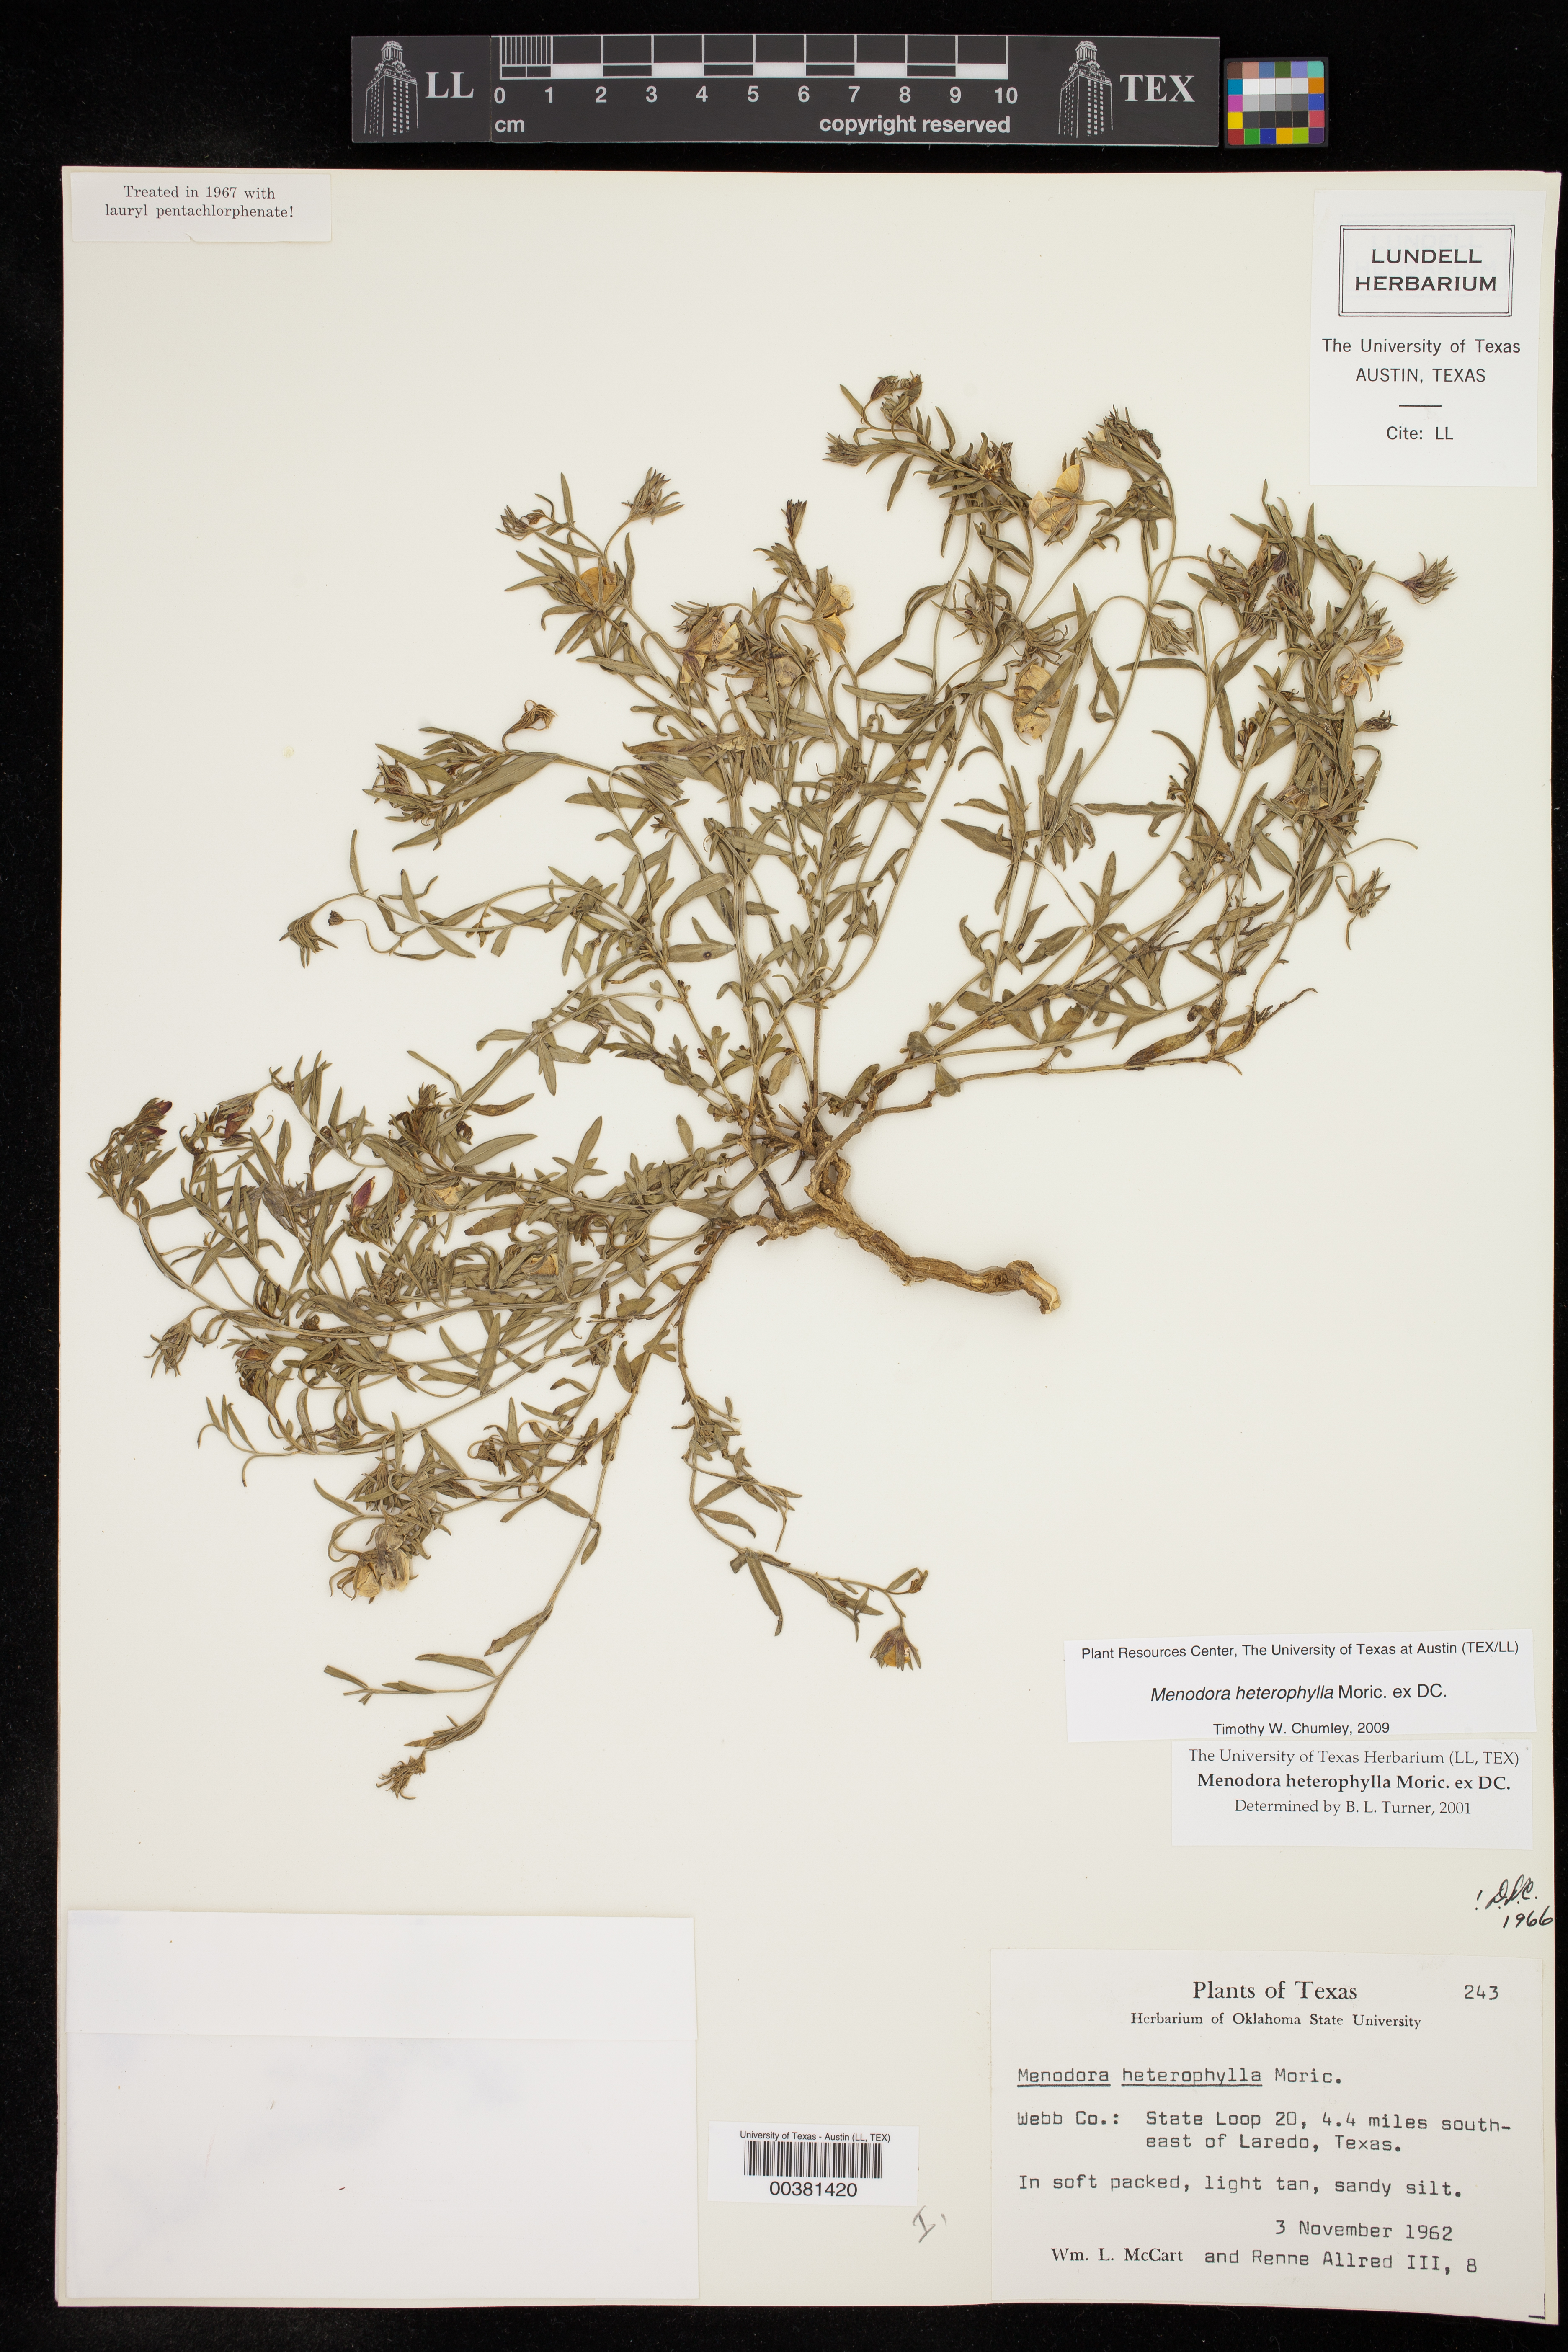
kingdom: Plantae
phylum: Tracheophyta
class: Magnoliopsida
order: Lamiales
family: Oleaceae
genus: Menodora
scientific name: Menodora heterophylla
